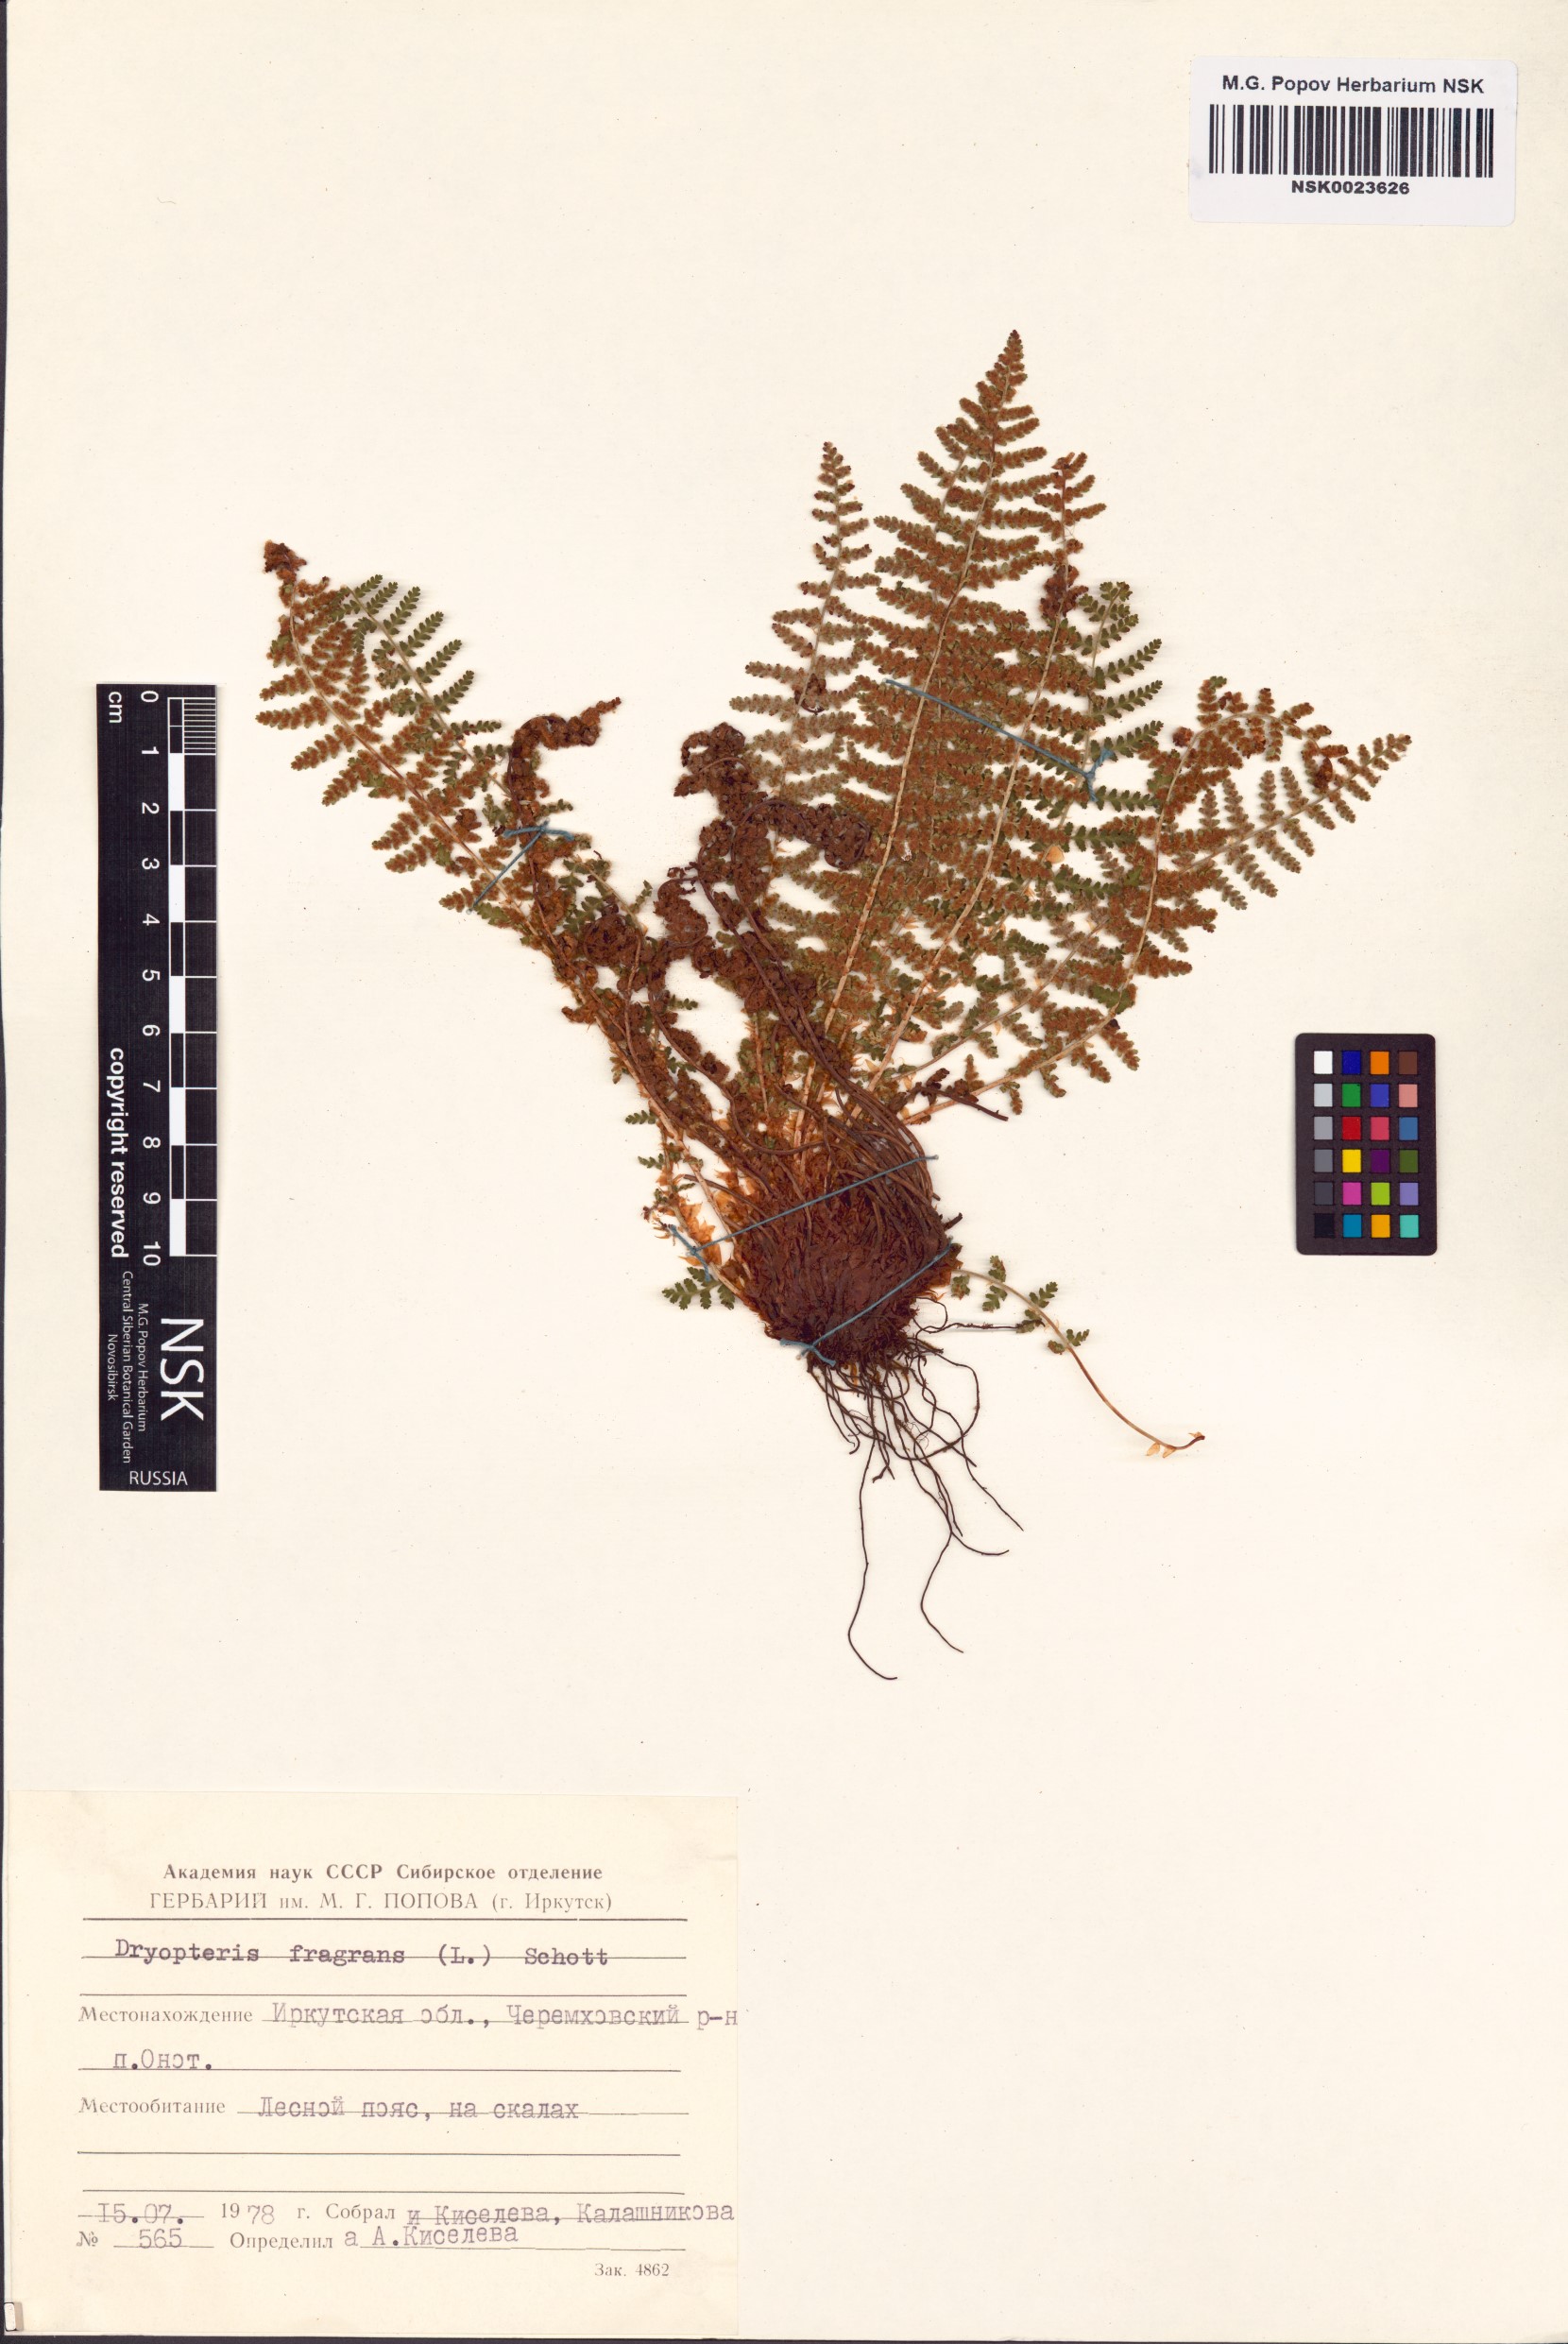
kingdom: Plantae
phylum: Tracheophyta
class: Polypodiopsida
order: Polypodiales
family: Dryopteridaceae
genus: Dryopteris
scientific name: Dryopteris fragrans
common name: Fragrant wood fern
